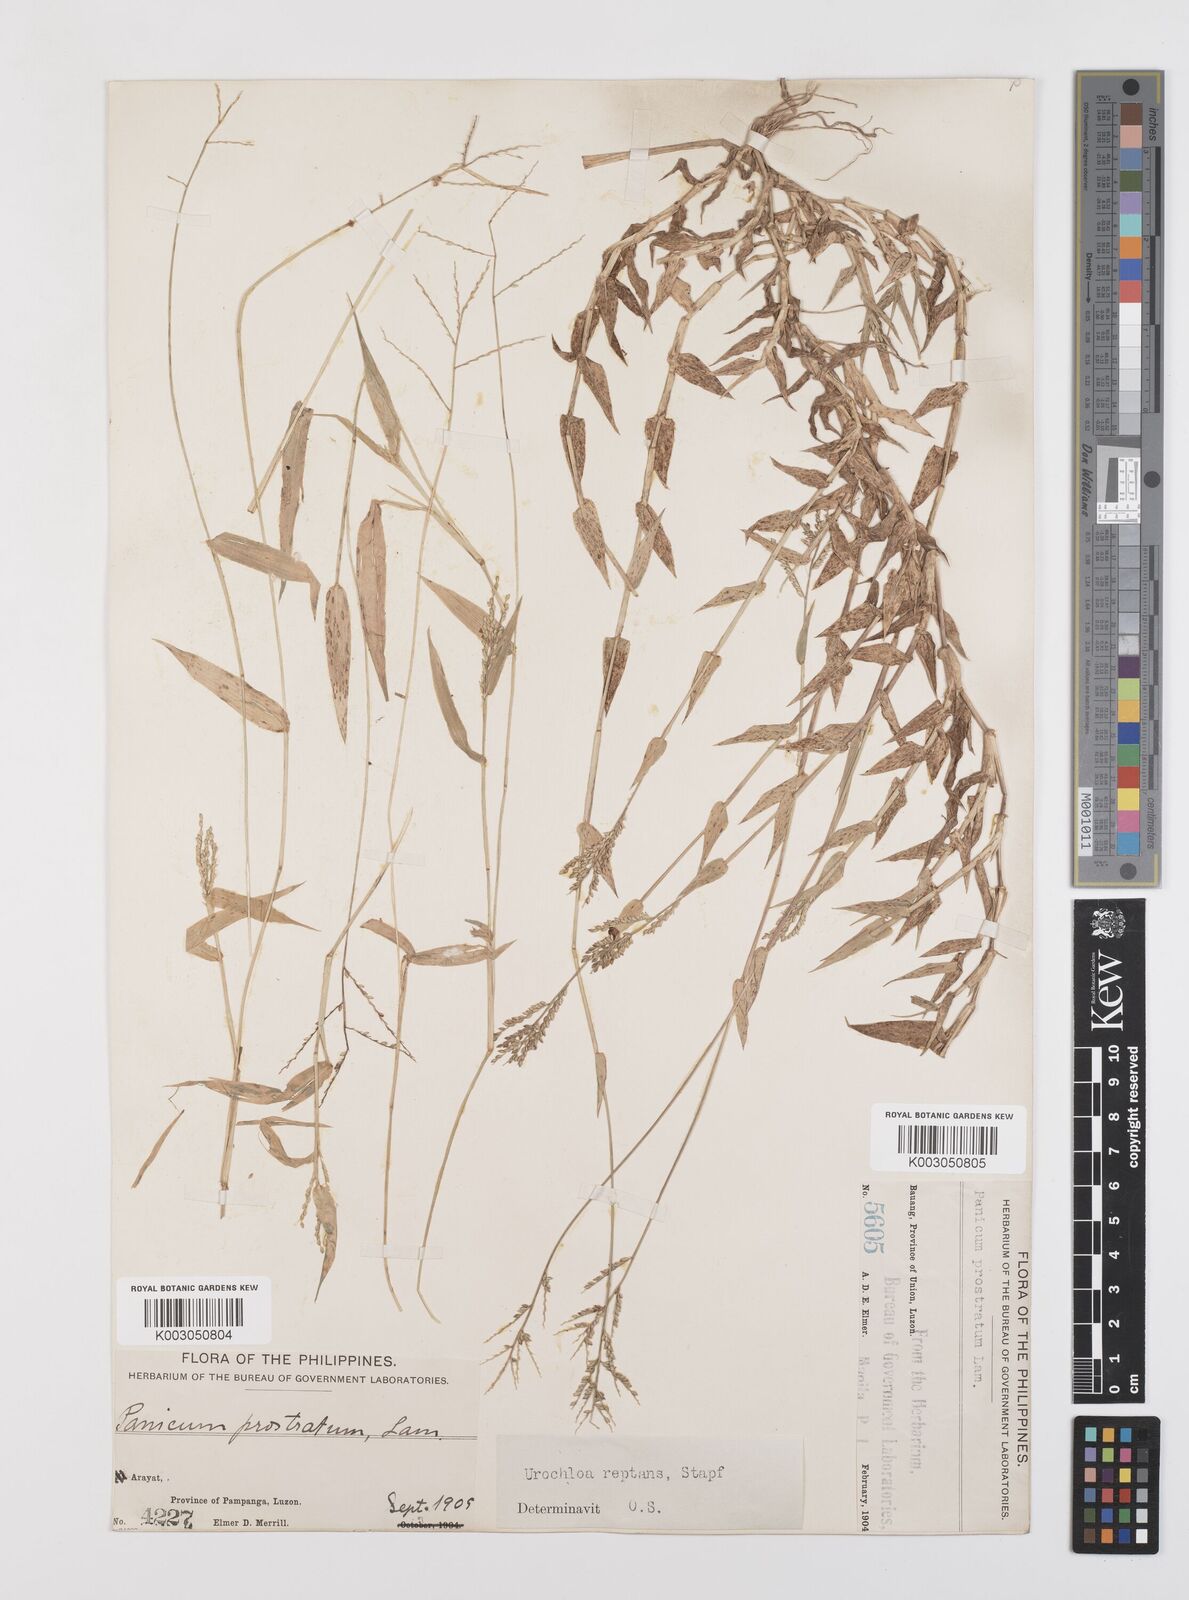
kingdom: Plantae
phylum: Tracheophyta
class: Liliopsida
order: Poales
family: Poaceae
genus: Urochloa
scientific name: Urochloa reptans
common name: Sprawling signalgrass
